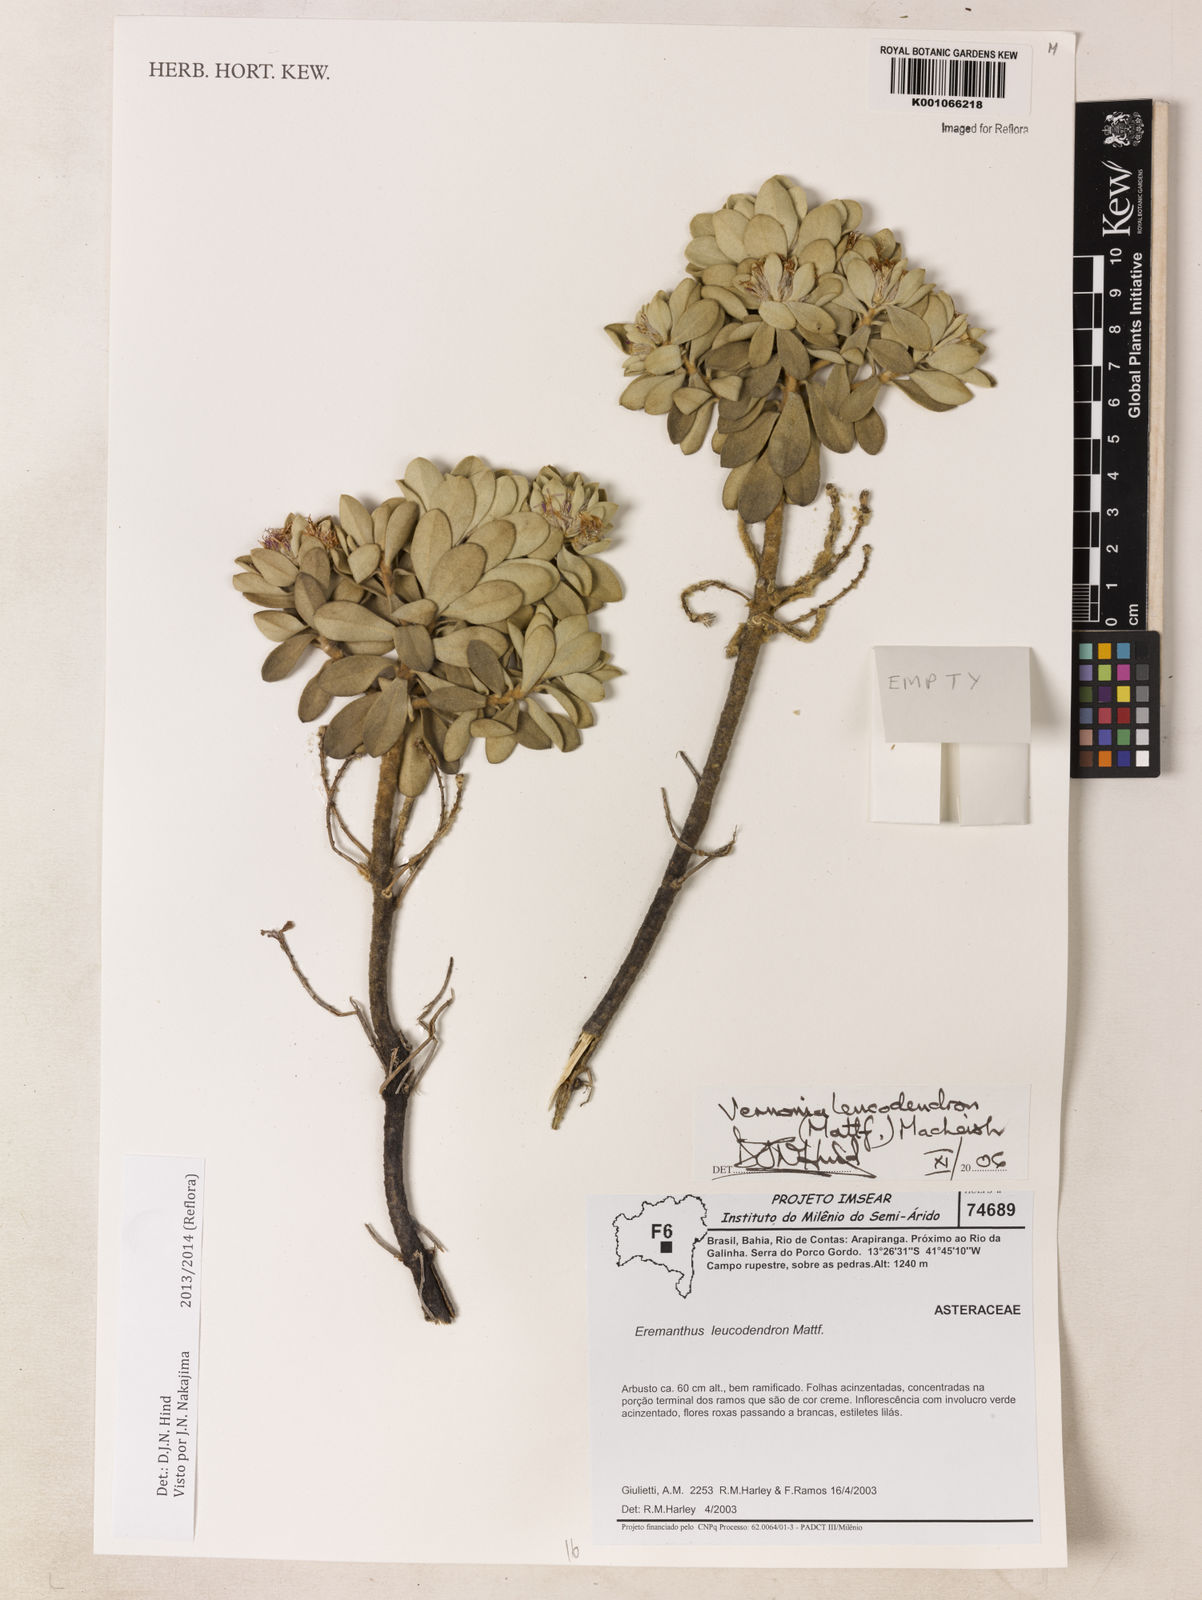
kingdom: Plantae
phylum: Tracheophyta
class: Magnoliopsida
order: Asterales
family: Asteraceae
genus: Lychnophorella
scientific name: Lychnophorella leucodendron
